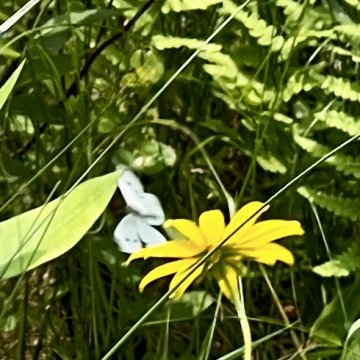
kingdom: Animalia
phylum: Arthropoda
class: Insecta
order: Lepidoptera
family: Pieridae
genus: Pieris
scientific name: Pieris rapae
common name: Cabbage White
